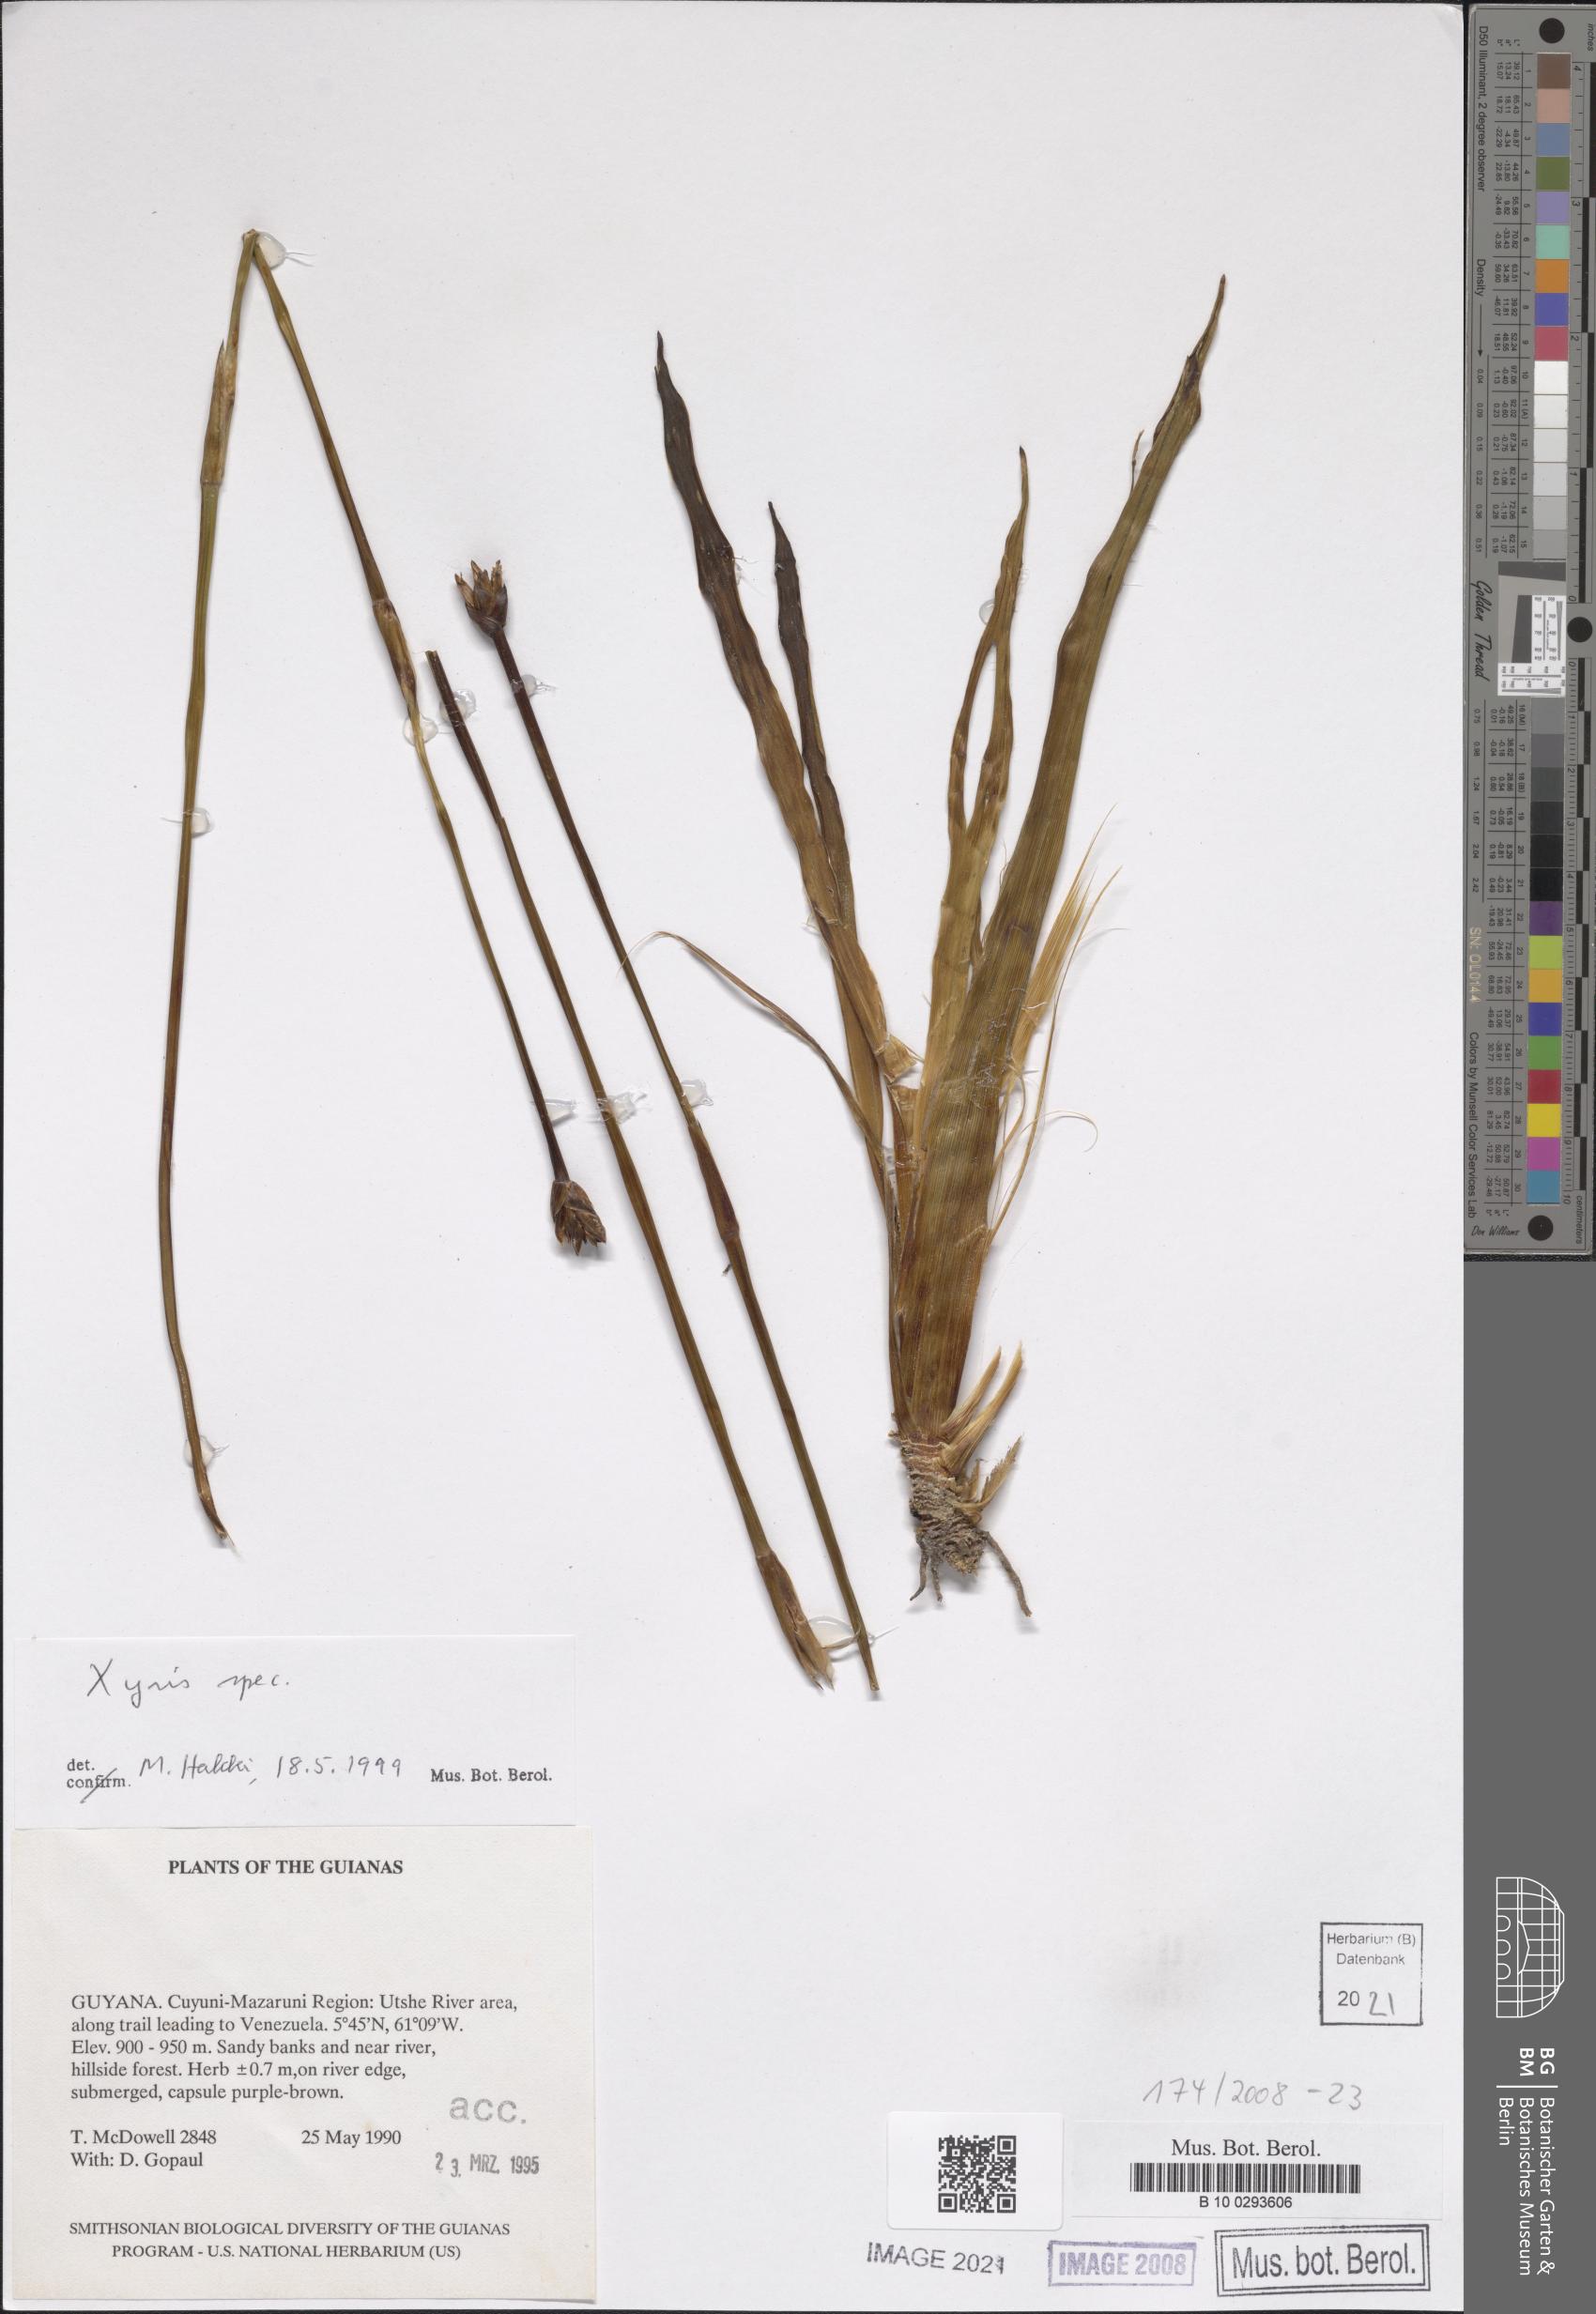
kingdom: Plantae
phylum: Tracheophyta
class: Liliopsida
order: Poales
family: Xyridaceae
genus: Xyris
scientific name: Xyris
